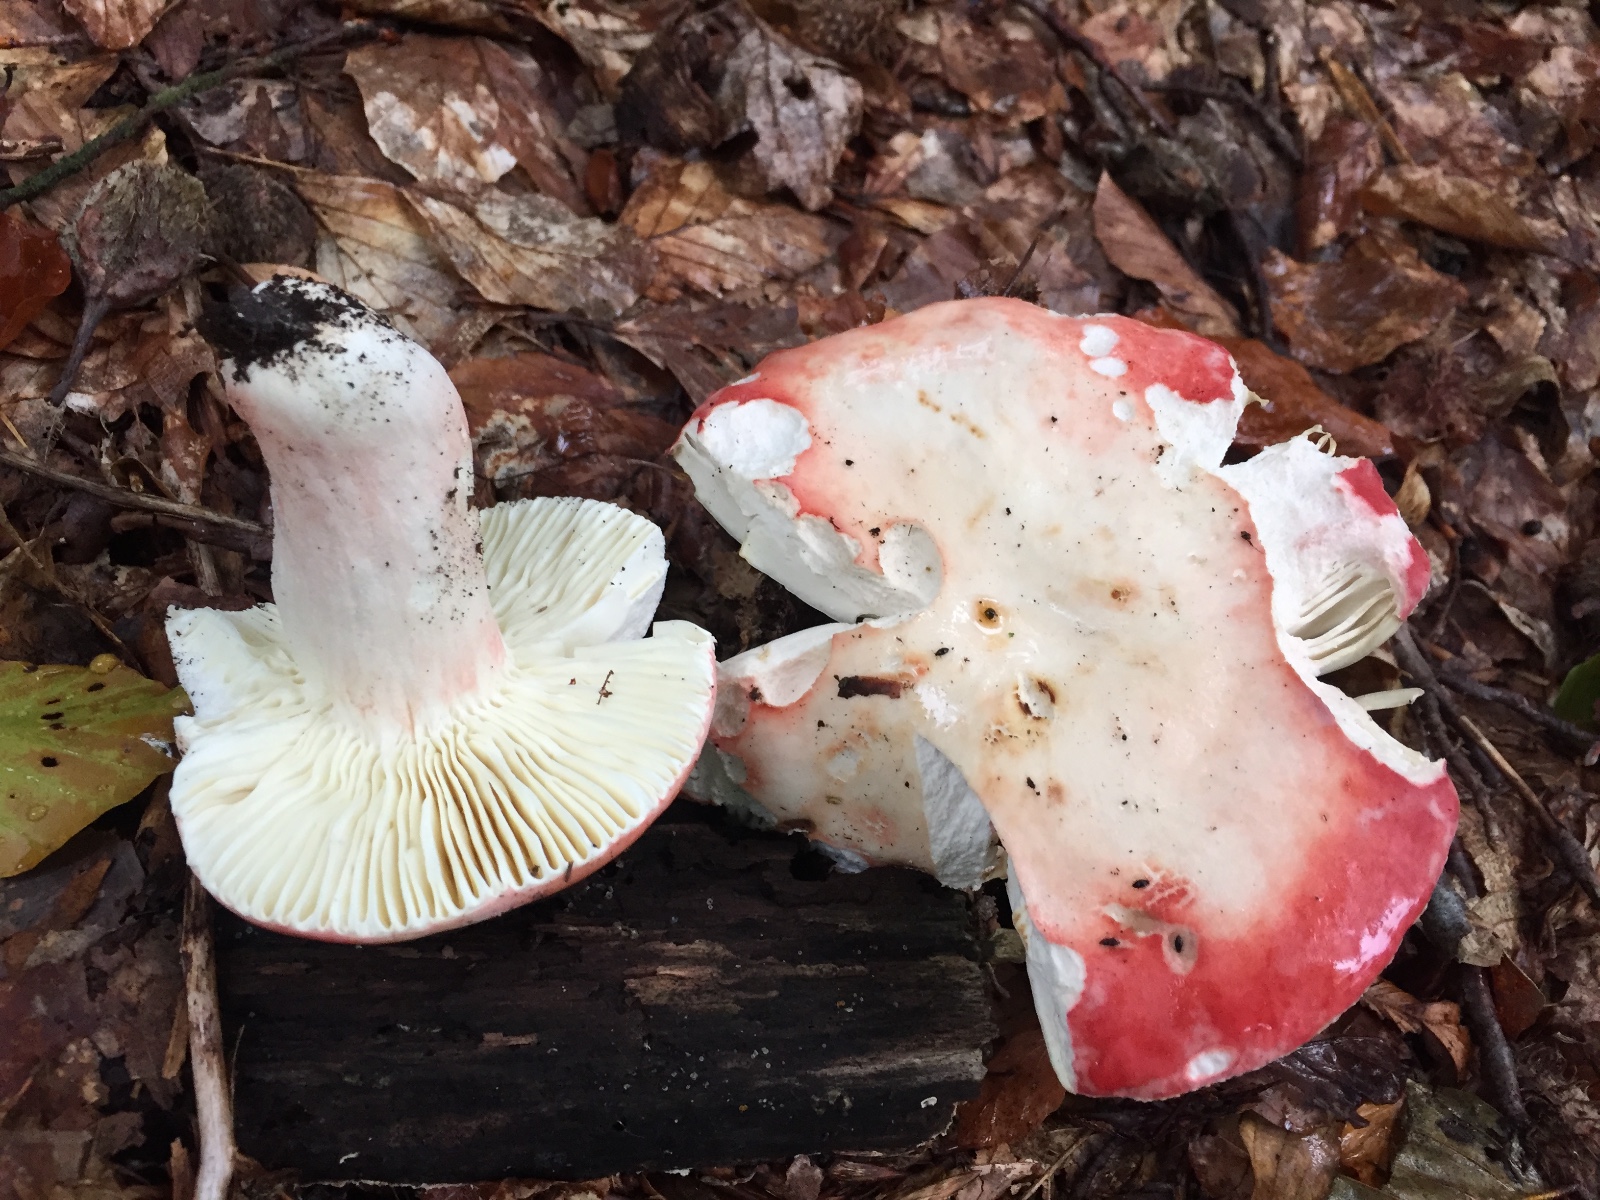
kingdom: Fungi
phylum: Basidiomycota
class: Agaricomycetes
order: Russulales
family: Russulaceae
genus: Russula
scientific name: Russula rosea
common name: fastkødet skørhat
